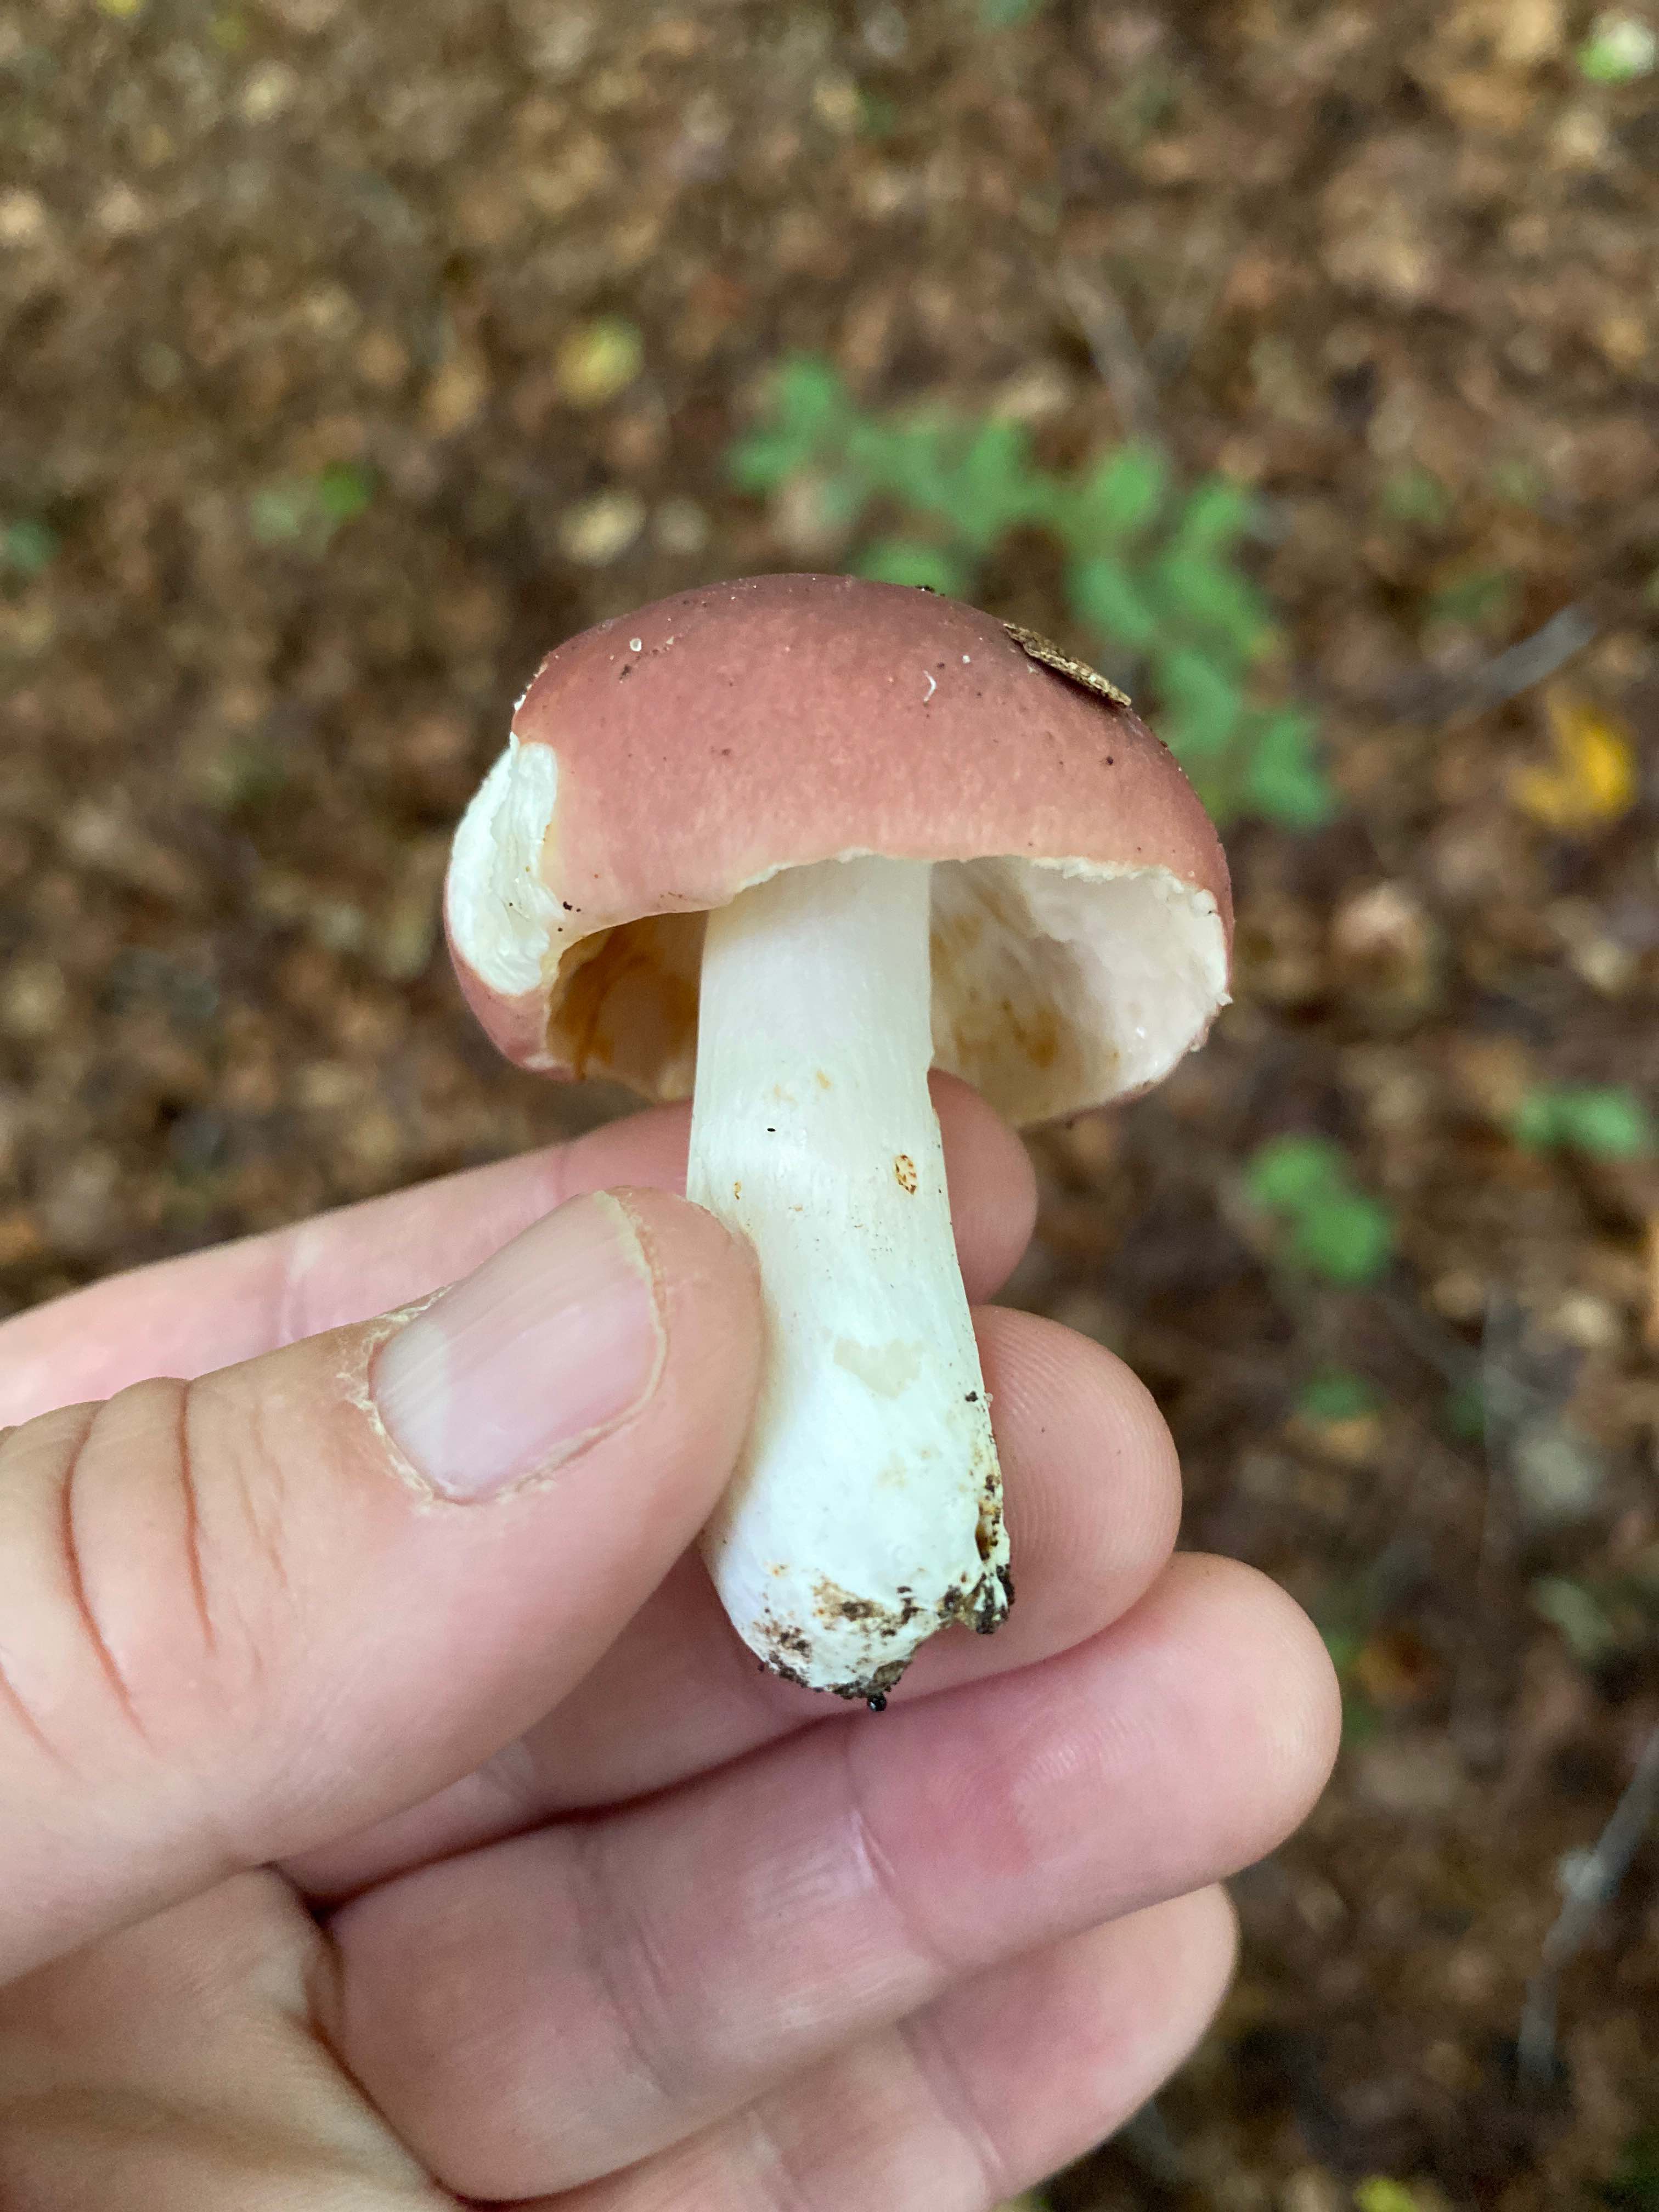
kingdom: Fungi
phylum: Basidiomycota
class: Agaricomycetes
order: Russulales
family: Russulaceae
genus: Russula
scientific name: Russula vesca
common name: spiselig skørhat
